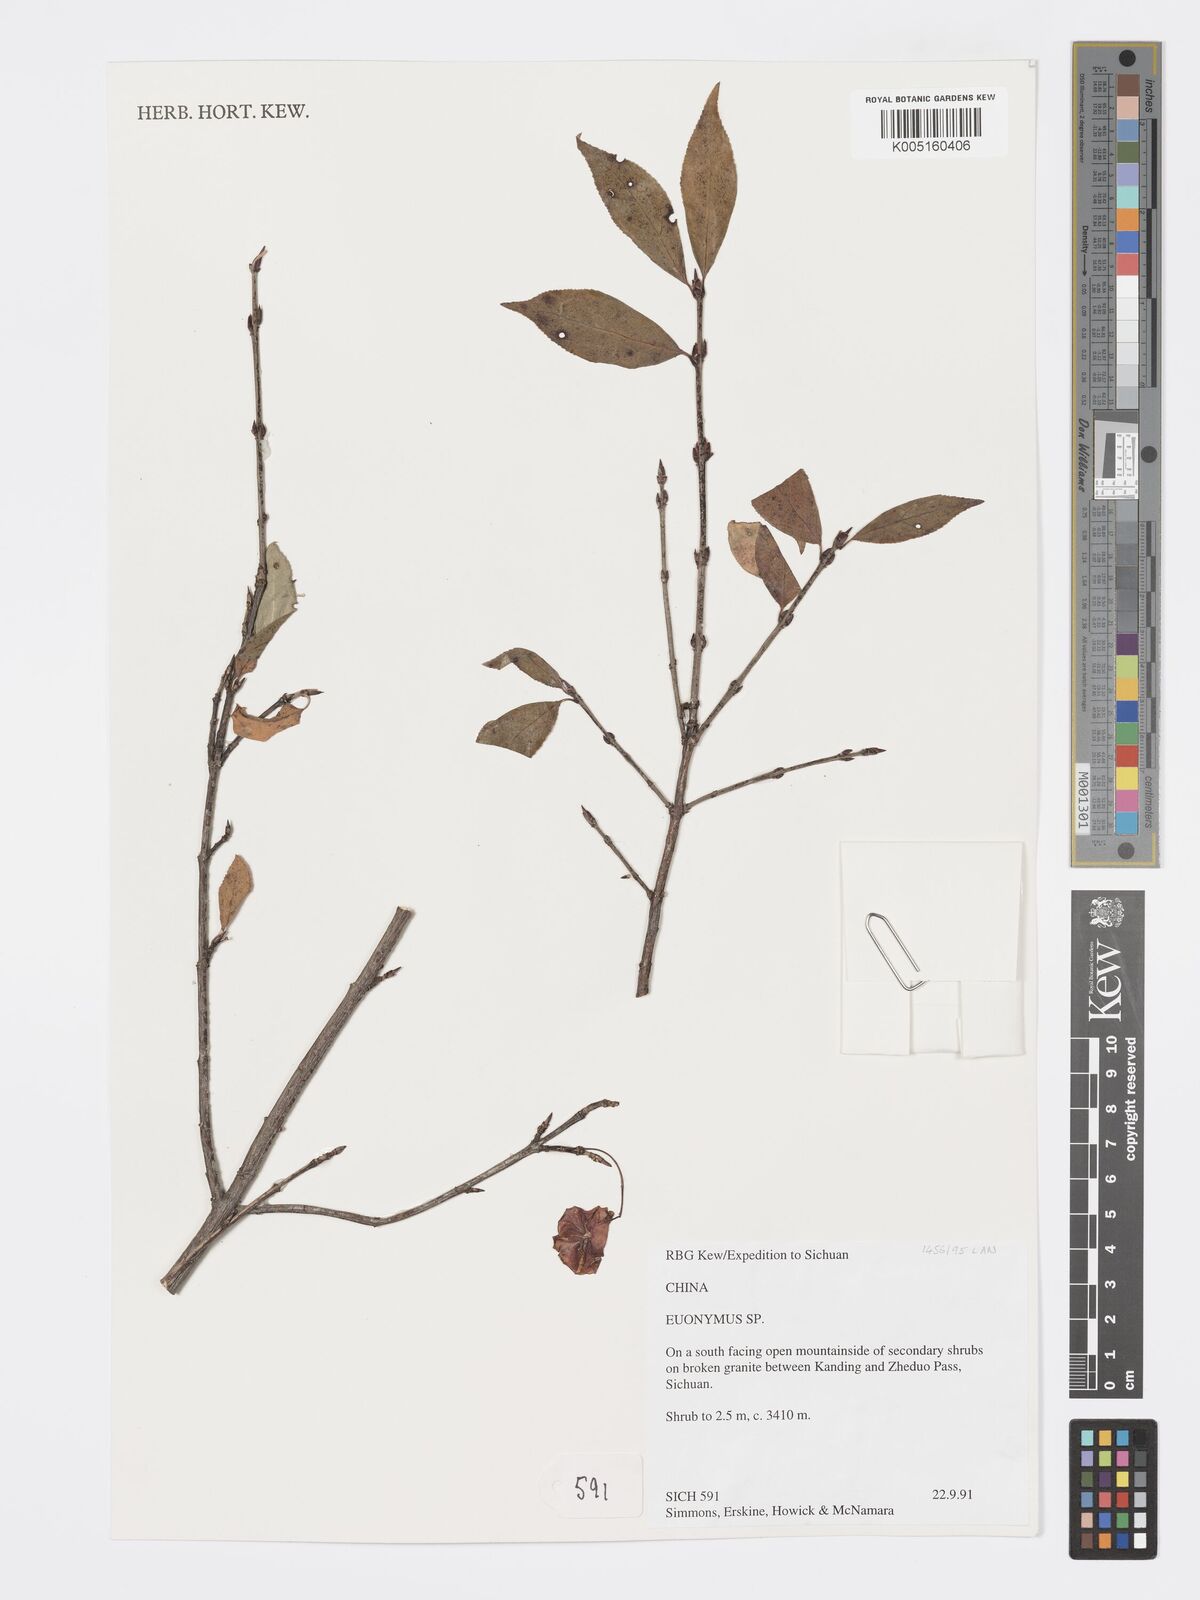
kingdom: Plantae
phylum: Tracheophyta
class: Magnoliopsida
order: Celastrales
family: Celastraceae
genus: Euonymus
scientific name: Euonymus
